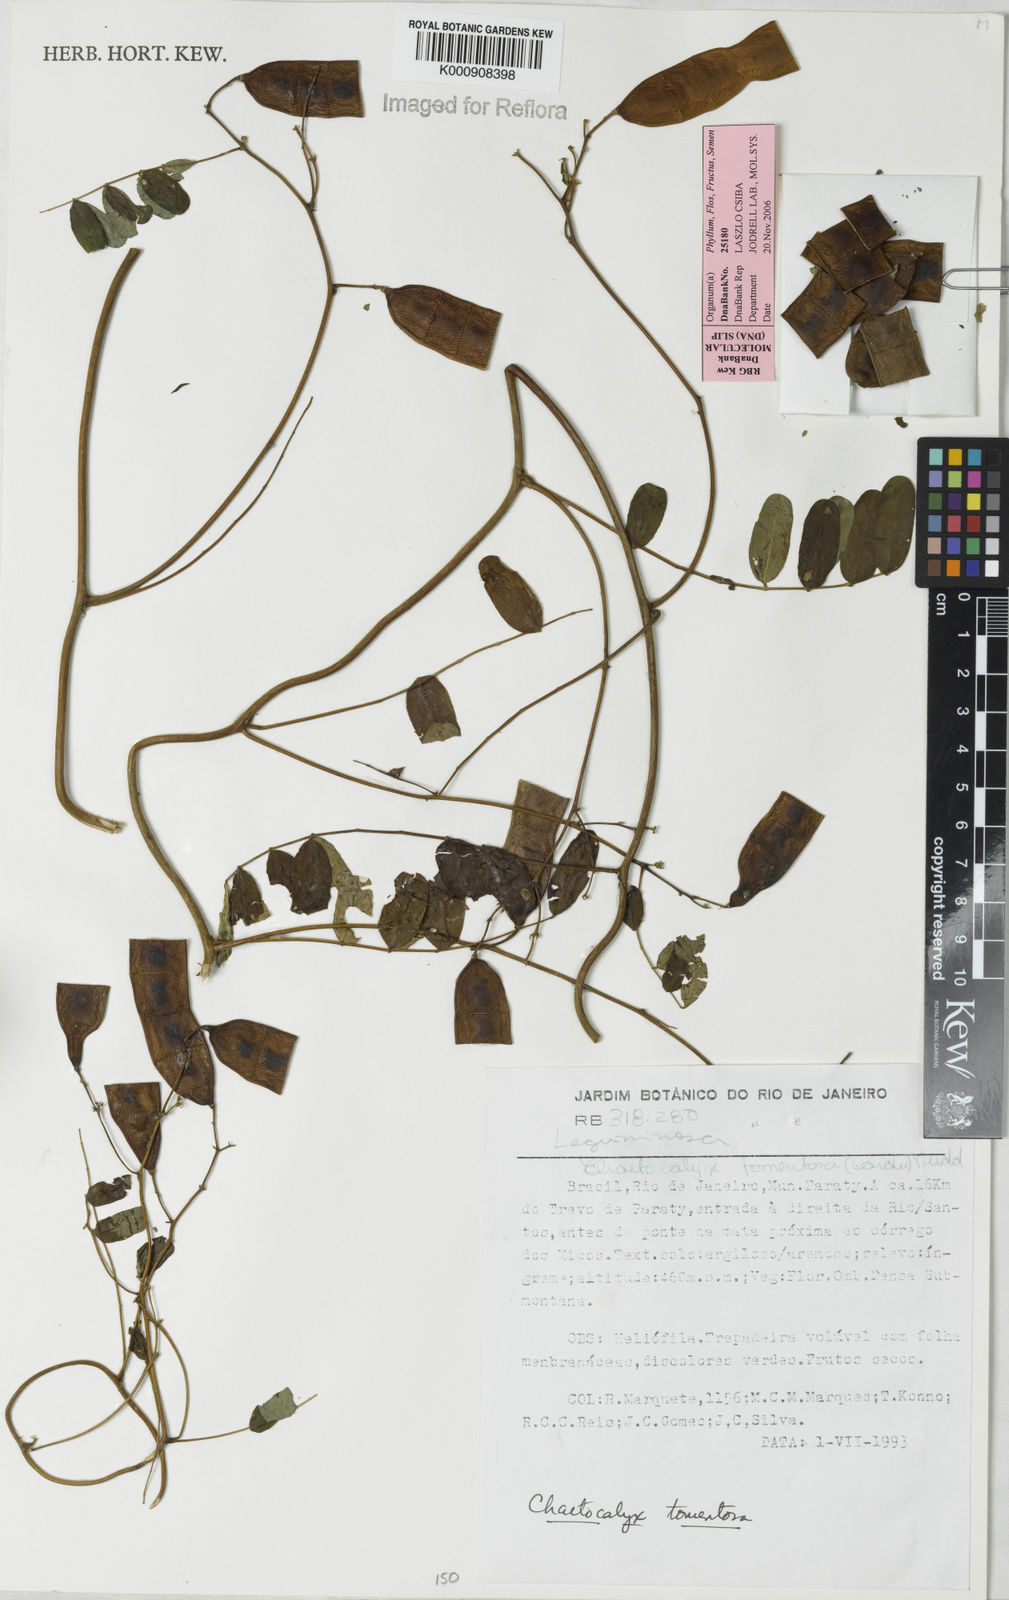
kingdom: Plantae
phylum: Tracheophyta
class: Magnoliopsida
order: Fabales
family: Fabaceae
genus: Nissolia
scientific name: Nissolia tomentosa
